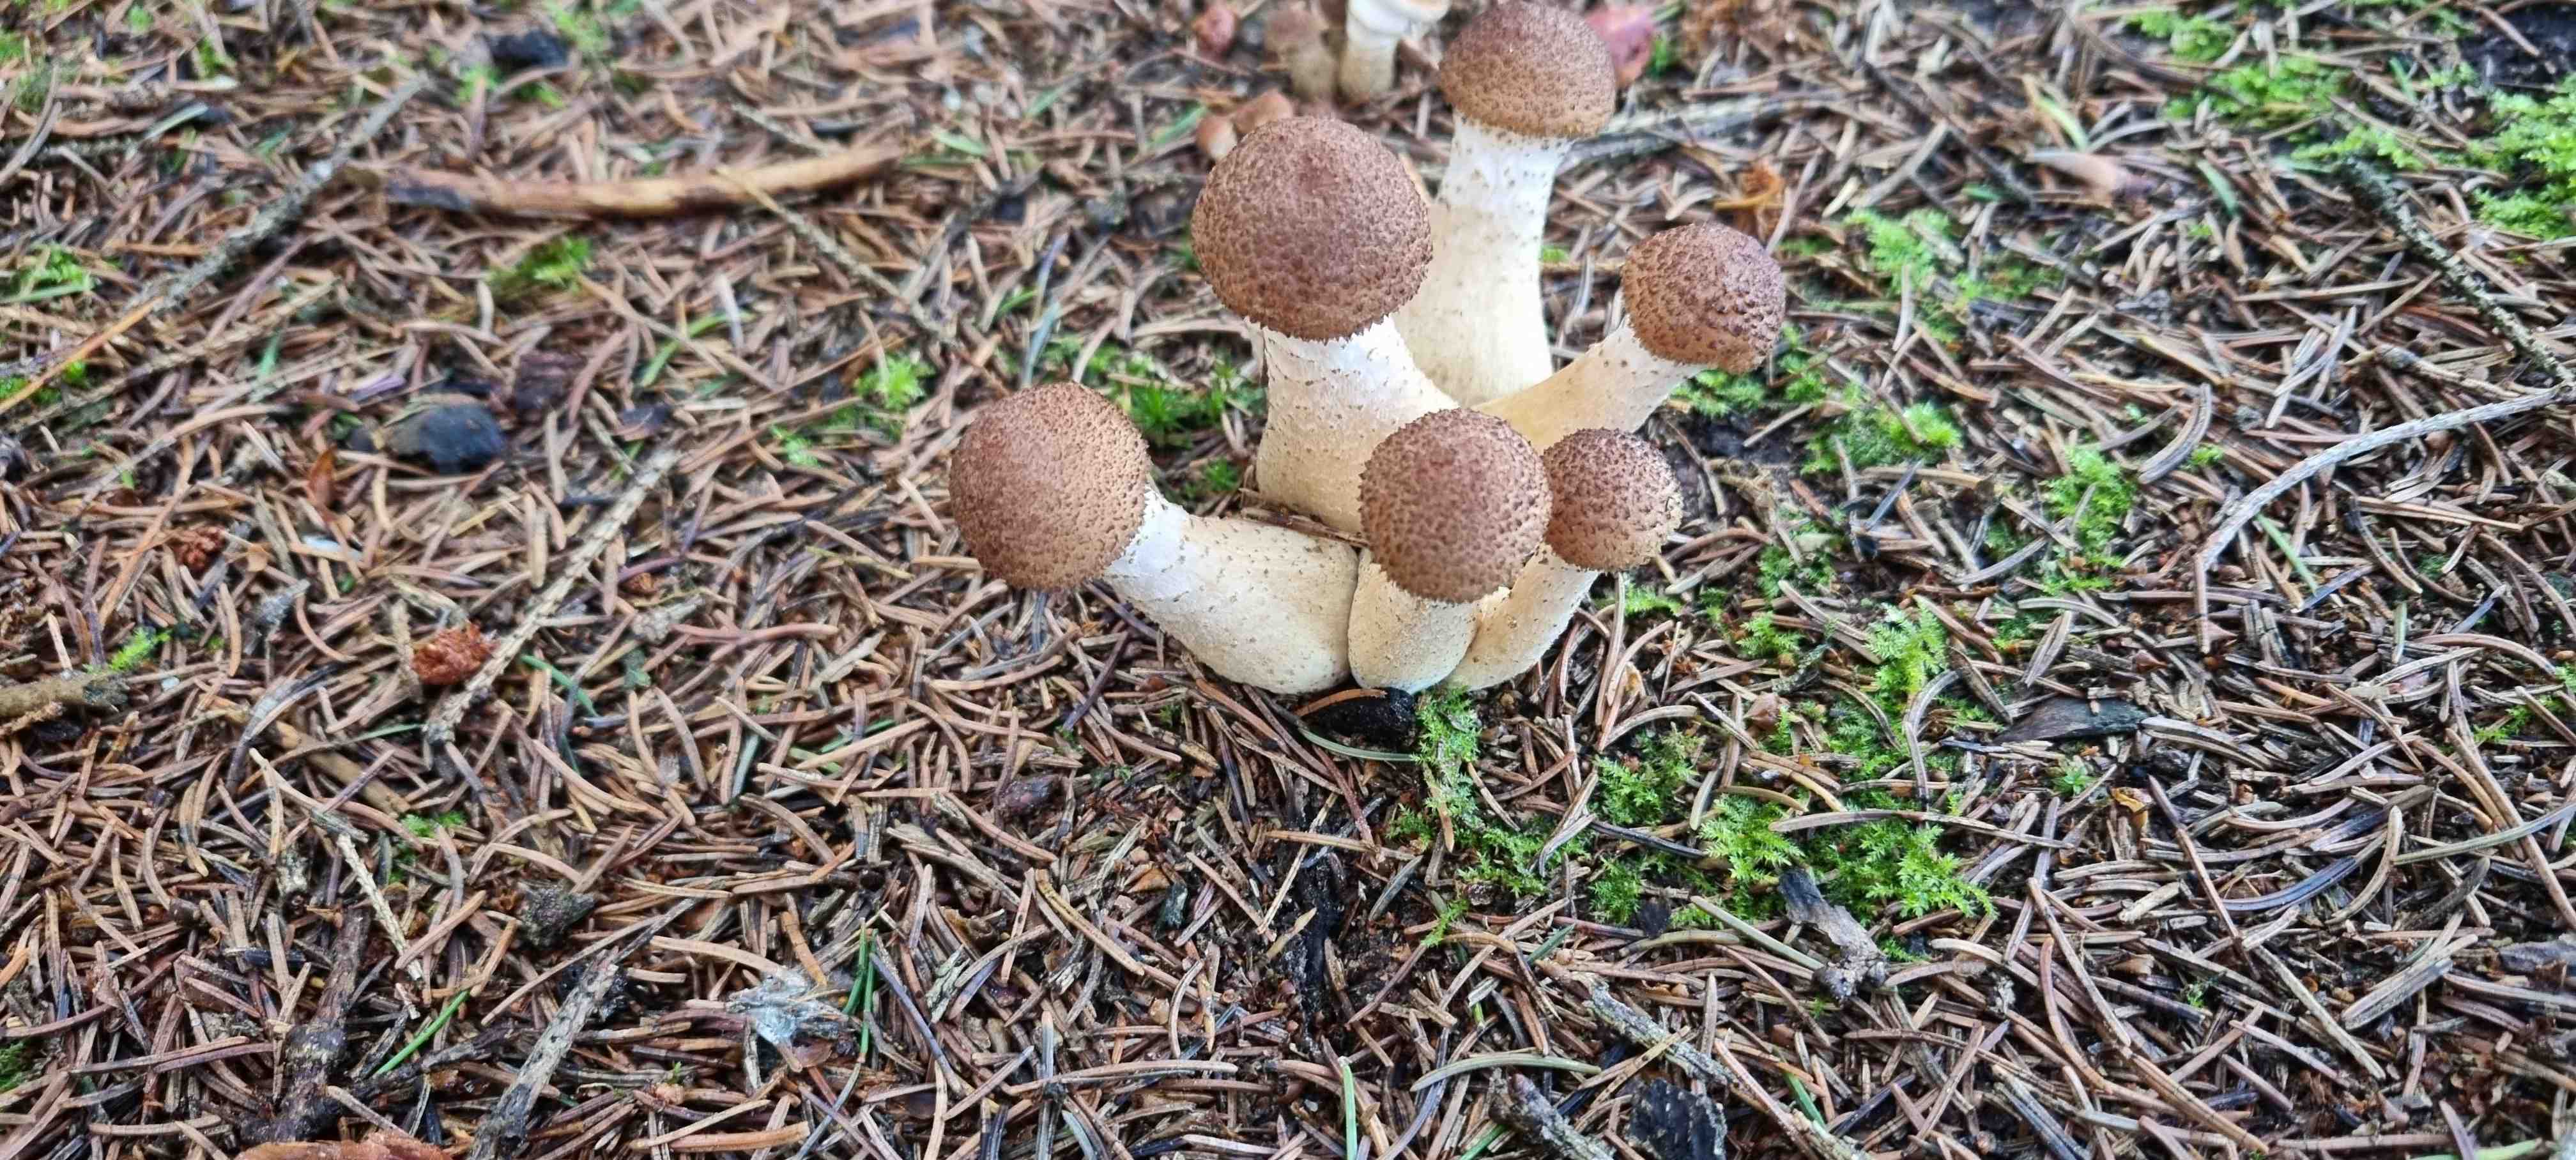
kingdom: Fungi
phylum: Basidiomycota
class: Agaricomycetes
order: Agaricales
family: Physalacriaceae
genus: Armillaria
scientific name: Armillaria ostoyae
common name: mørk honningsvamp
